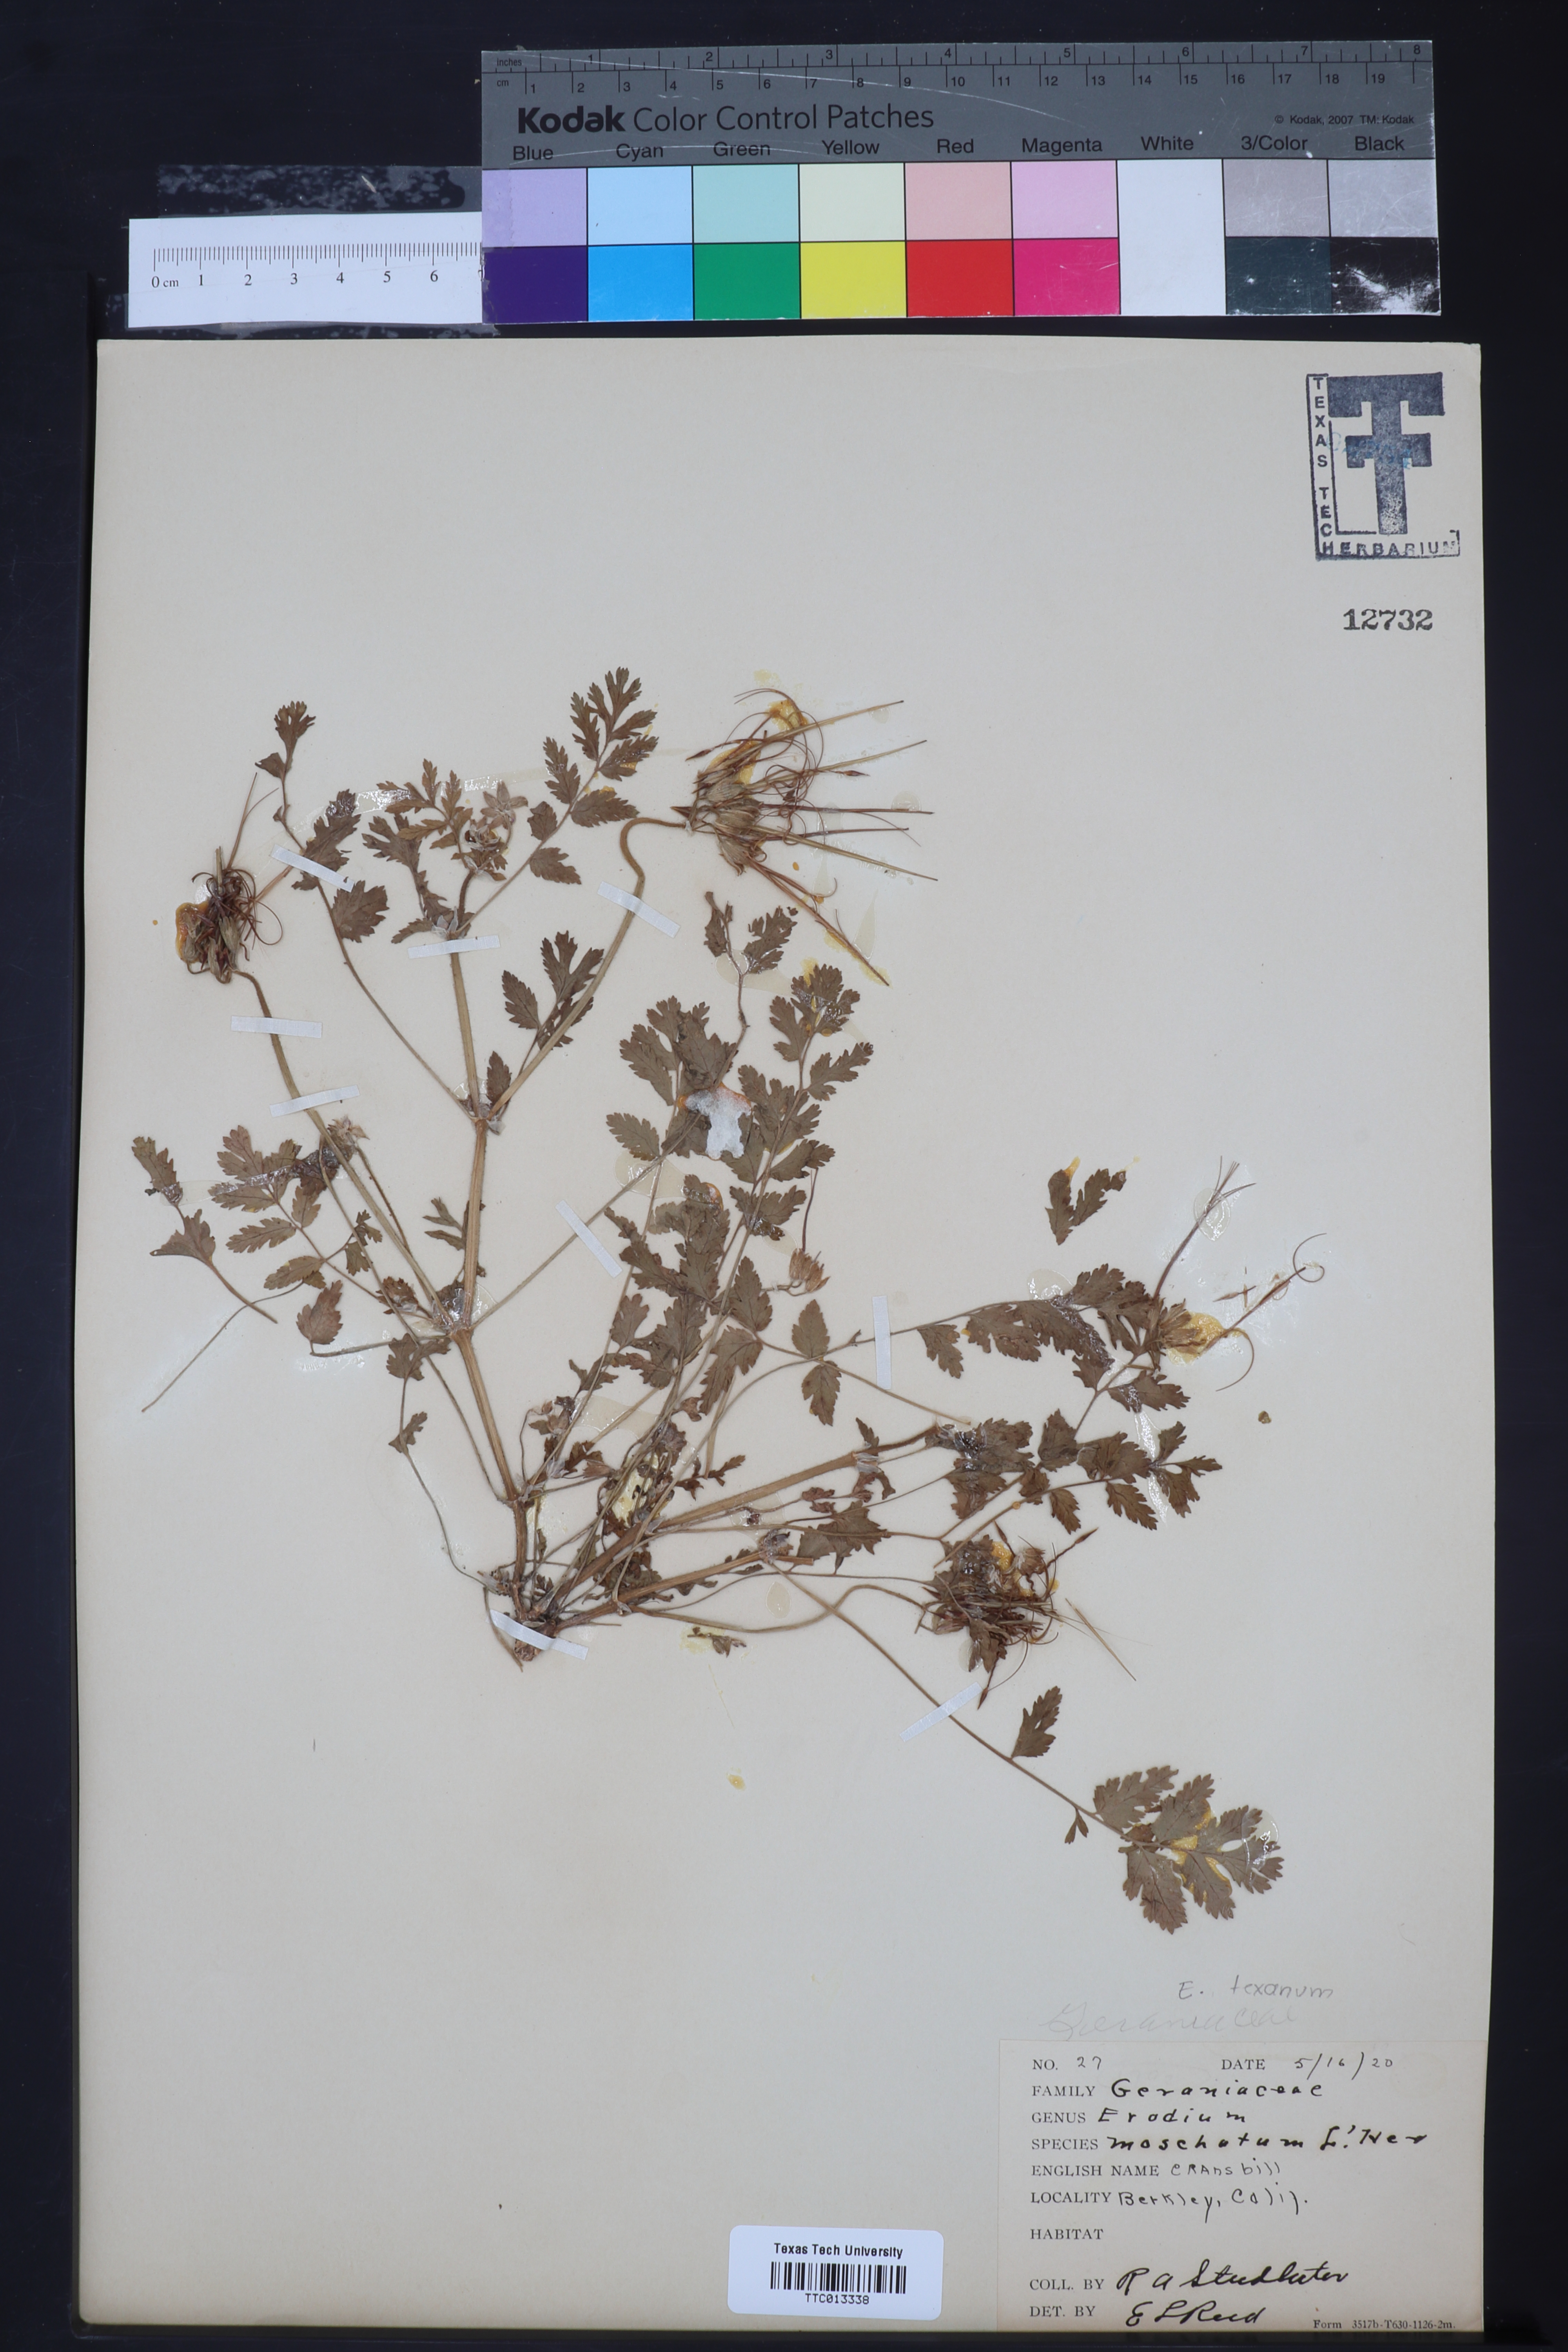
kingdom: Plantae
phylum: Tracheophyta
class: Magnoliopsida
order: Geraniales
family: Geraniaceae
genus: Erodium
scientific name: Erodium moschatum
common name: Musk stork's-bill
